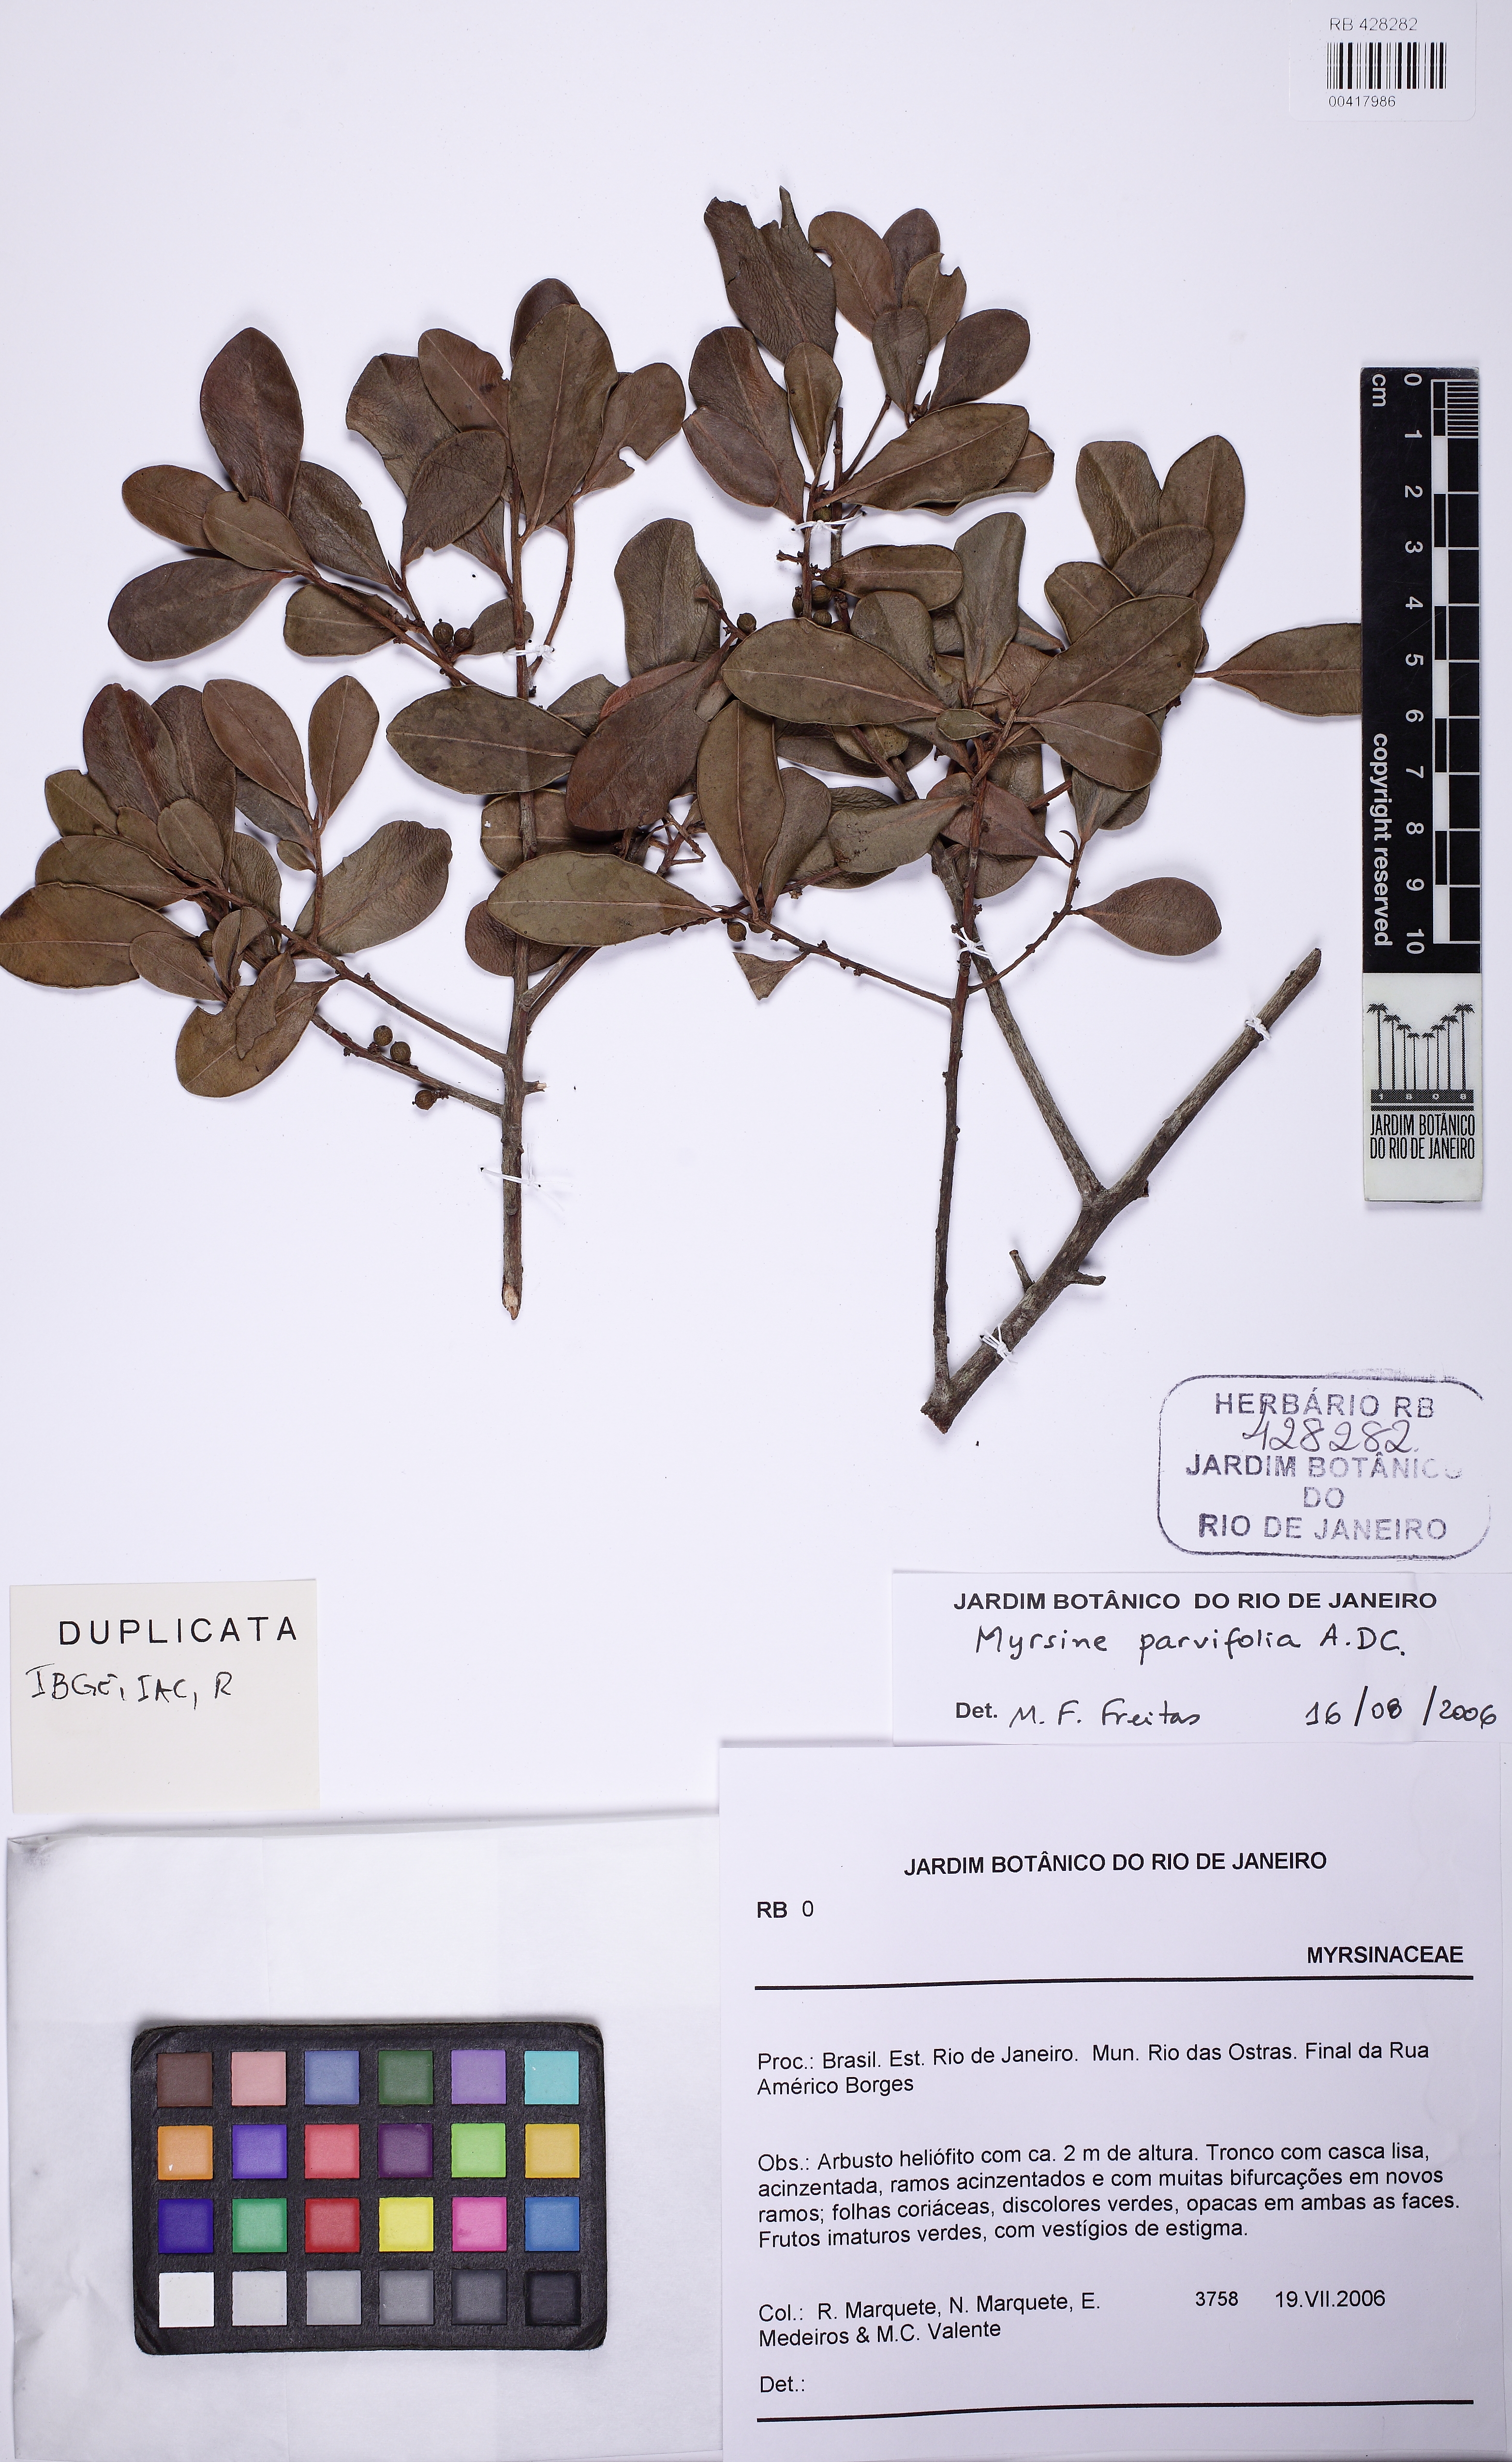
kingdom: Plantae
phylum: Tracheophyta
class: Magnoliopsida
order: Ericales
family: Primulaceae
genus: Myrsine
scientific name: Myrsine parvifolia
